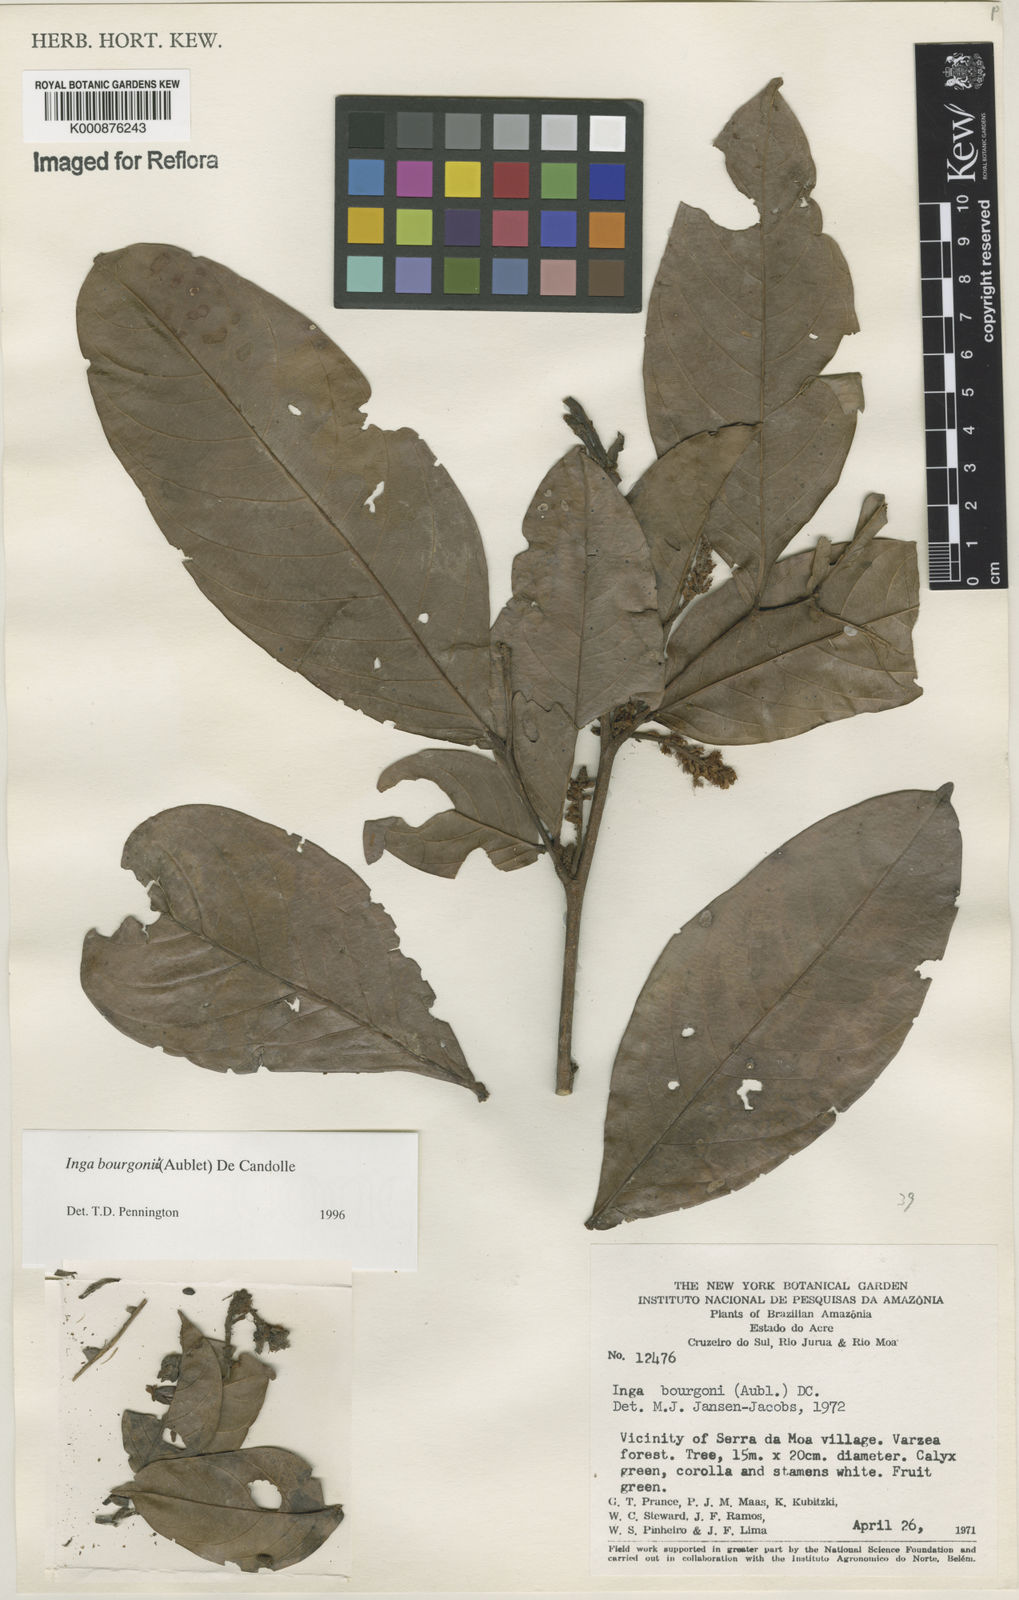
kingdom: Plantae
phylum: Tracheophyta
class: Magnoliopsida
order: Fabales
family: Fabaceae
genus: Inga
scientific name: Inga bourgoni
